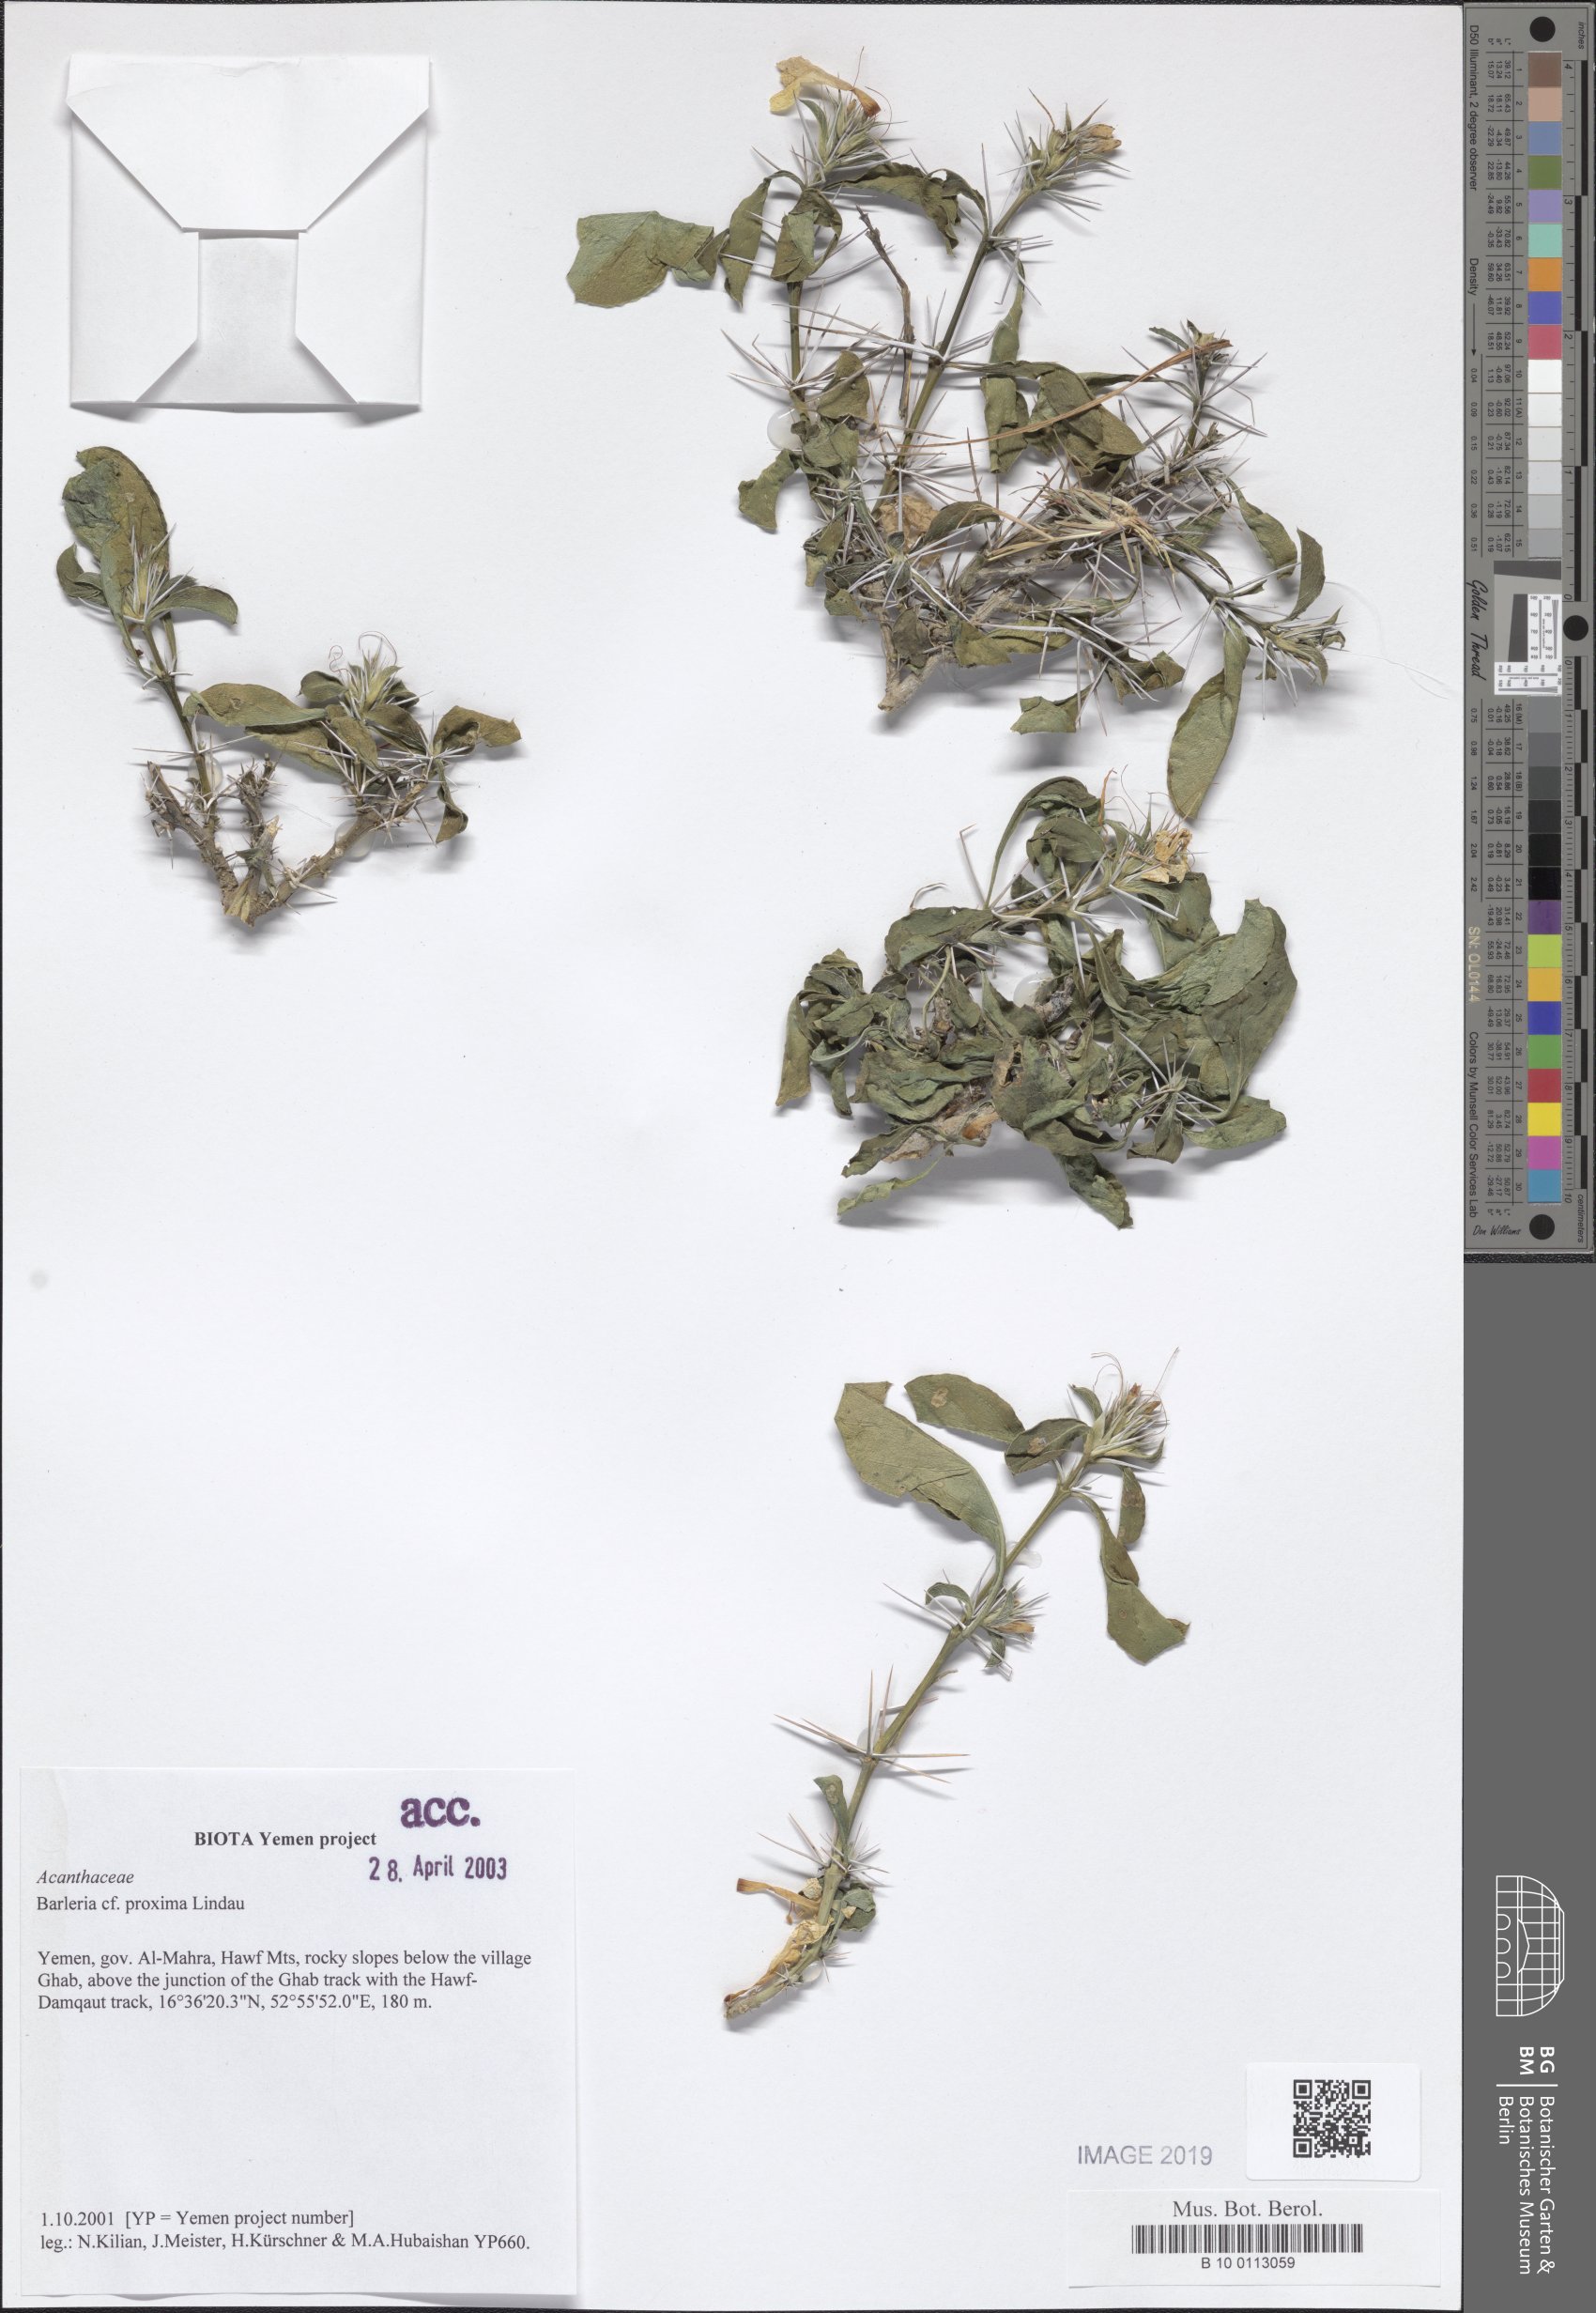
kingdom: Plantae
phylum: Tracheophyta
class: Magnoliopsida
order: Lamiales
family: Acanthaceae
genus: Barleria
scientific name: Barleria proxima
